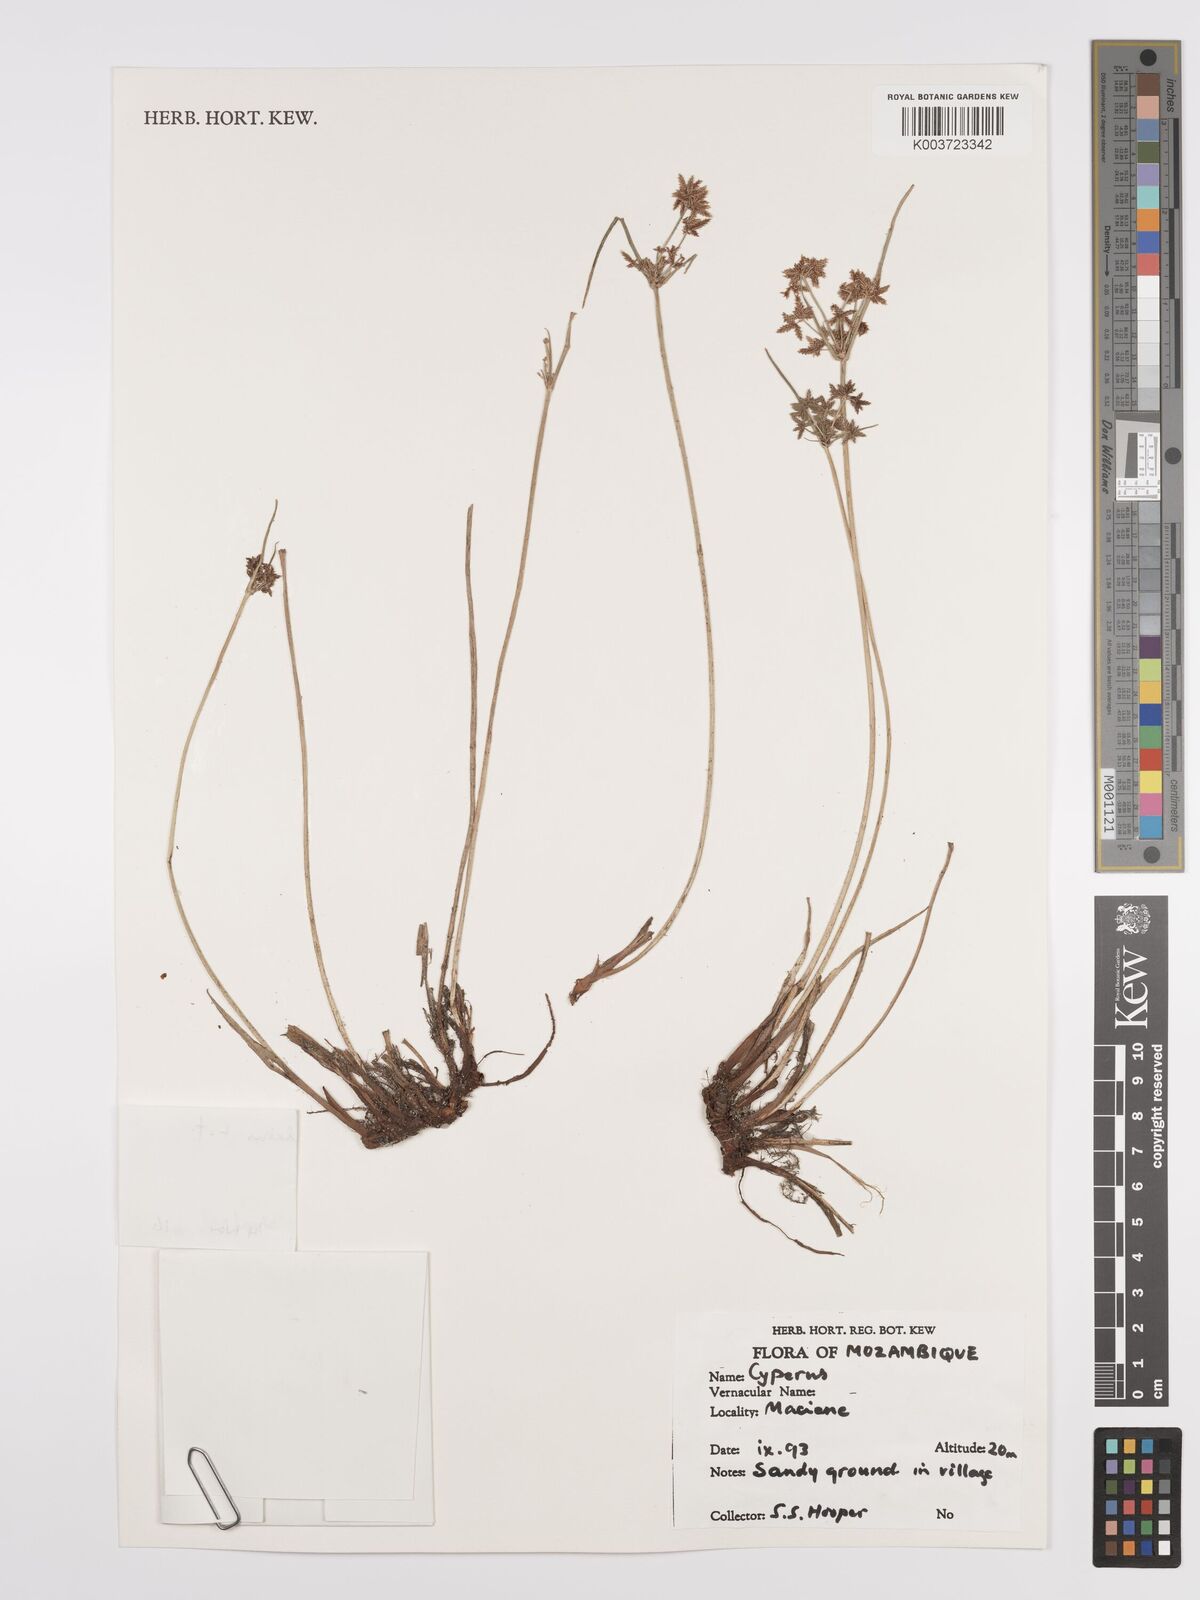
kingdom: Plantae
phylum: Tracheophyta
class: Liliopsida
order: Poales
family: Cyperaceae
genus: Cyperus
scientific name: Cyperus denudatus
